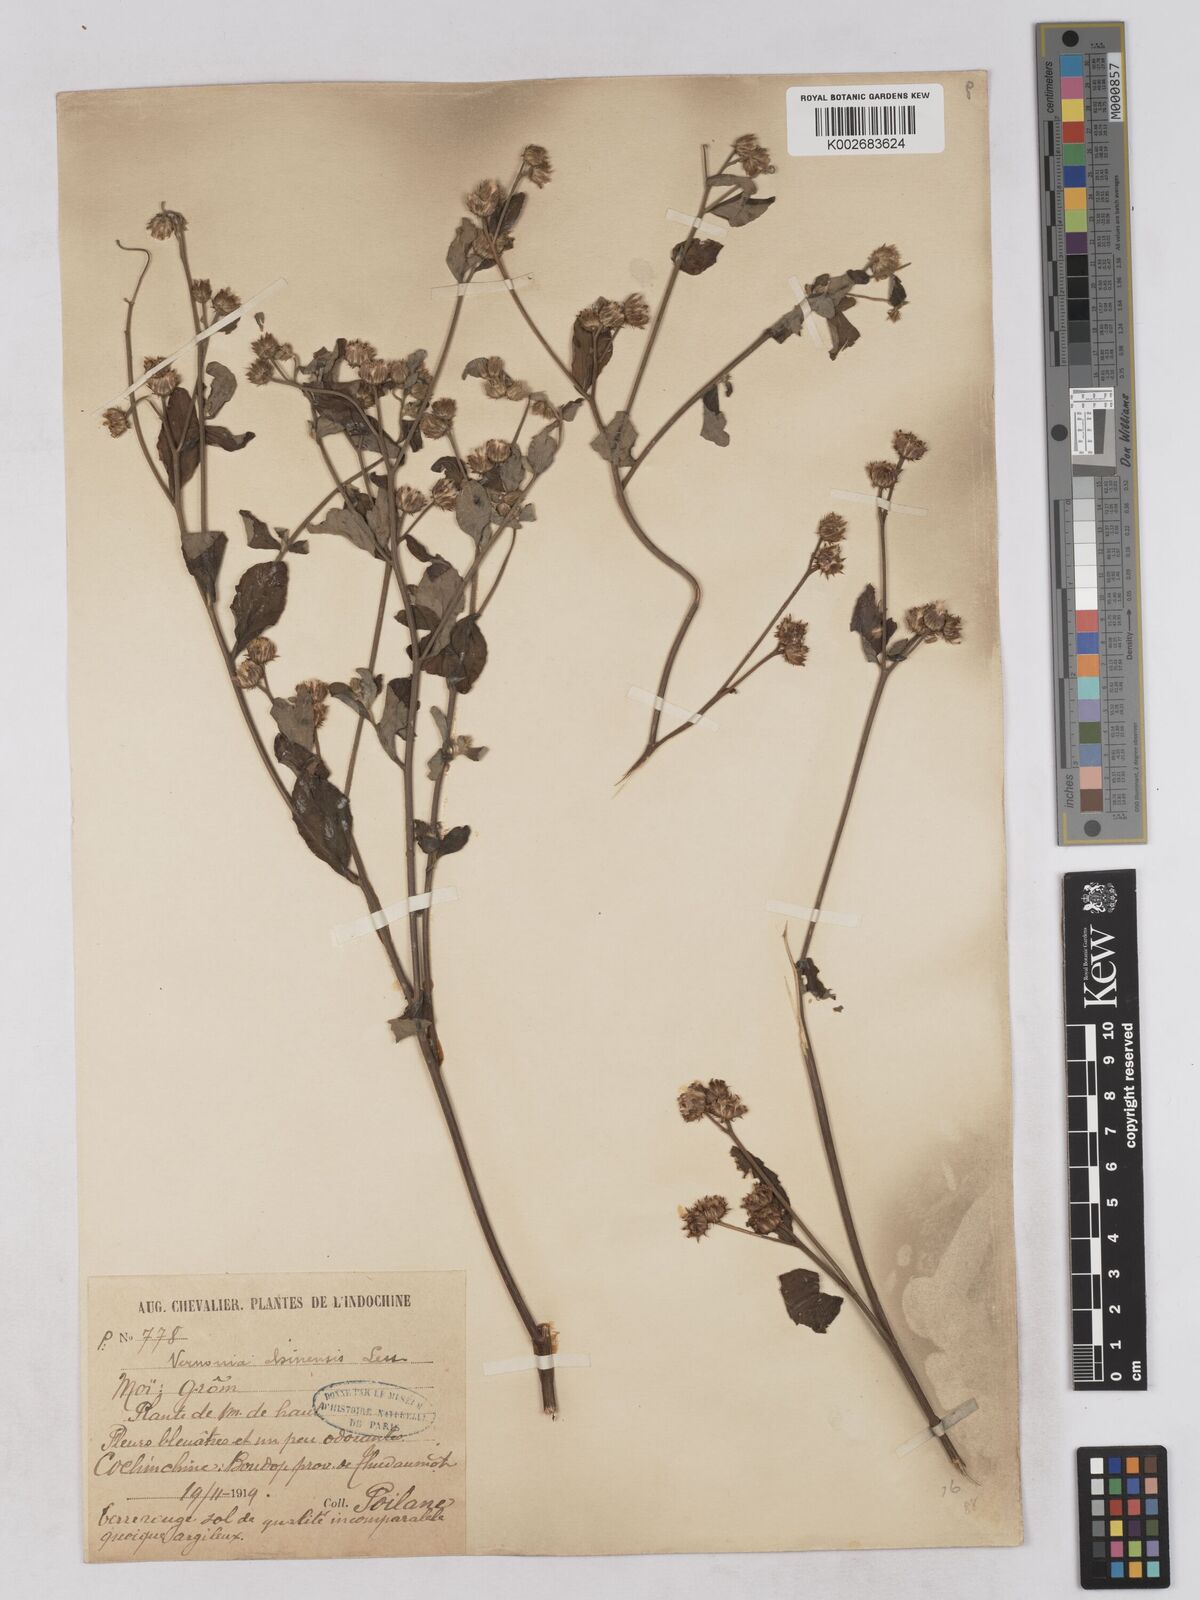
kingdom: Plantae
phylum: Tracheophyta
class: Magnoliopsida
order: Asterales
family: Asteraceae
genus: Cyanthillium
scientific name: Cyanthillium patulum
